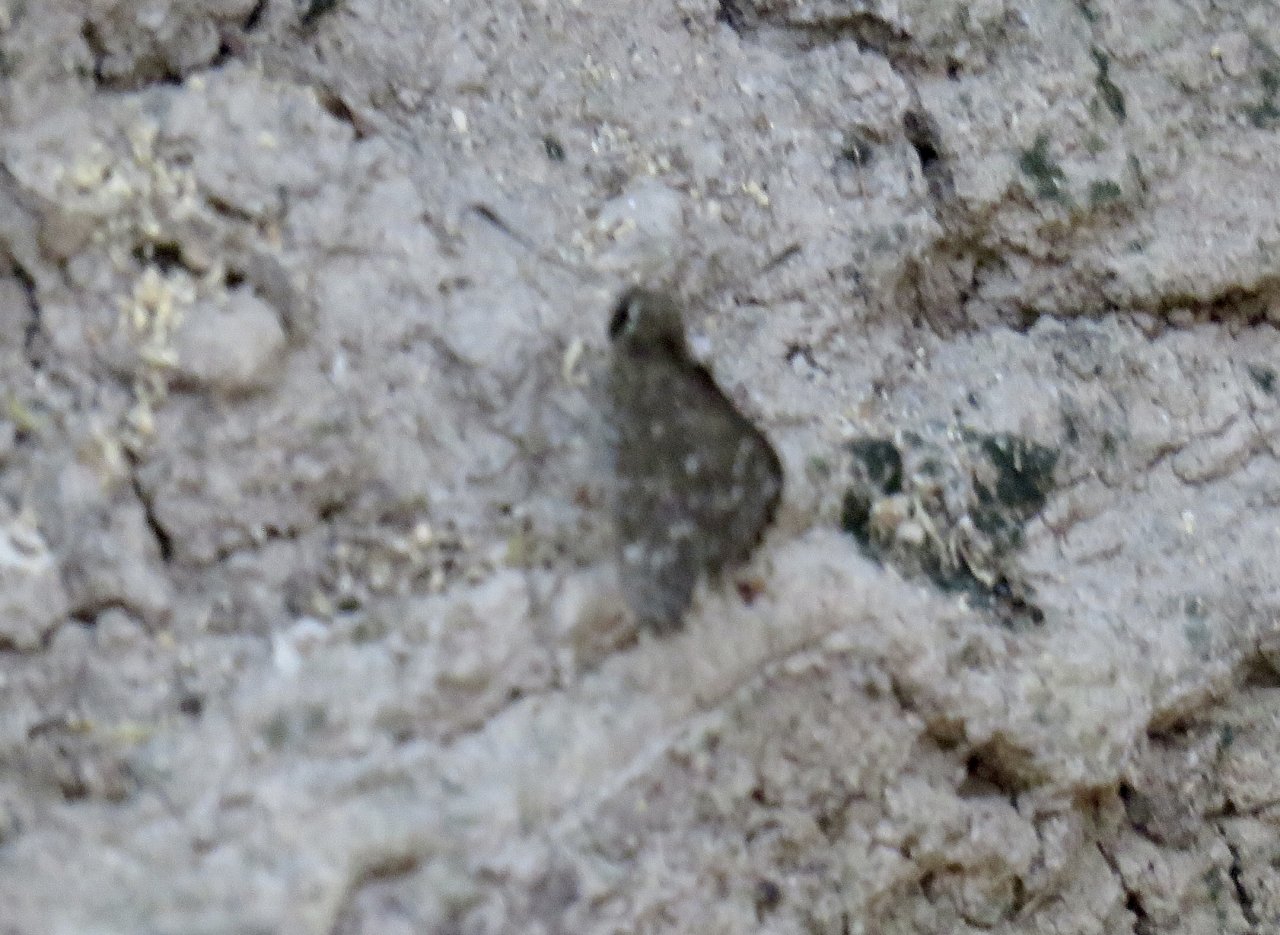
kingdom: Animalia
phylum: Arthropoda
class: Insecta
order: Lepidoptera
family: Hesperiidae
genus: Mastor
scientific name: Mastor celia
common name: Celia's Roadside-Skipper
